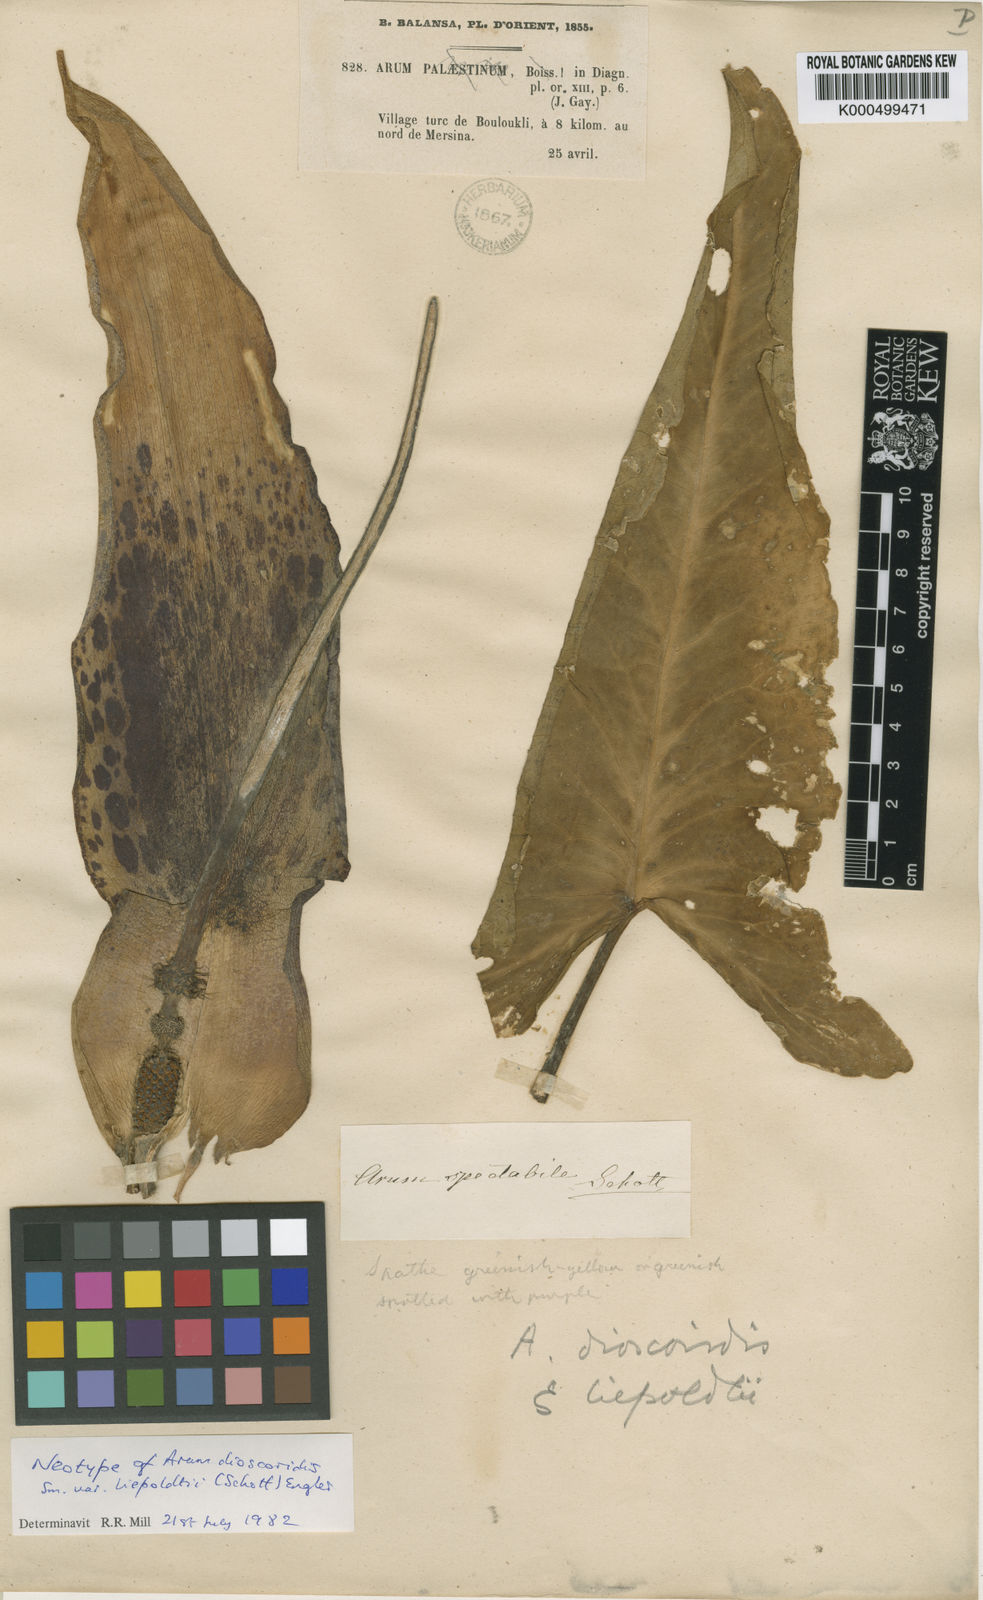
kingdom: Plantae
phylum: Tracheophyta
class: Liliopsida
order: Alismatales
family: Araceae
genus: Arum
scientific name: Arum dioscoridis
